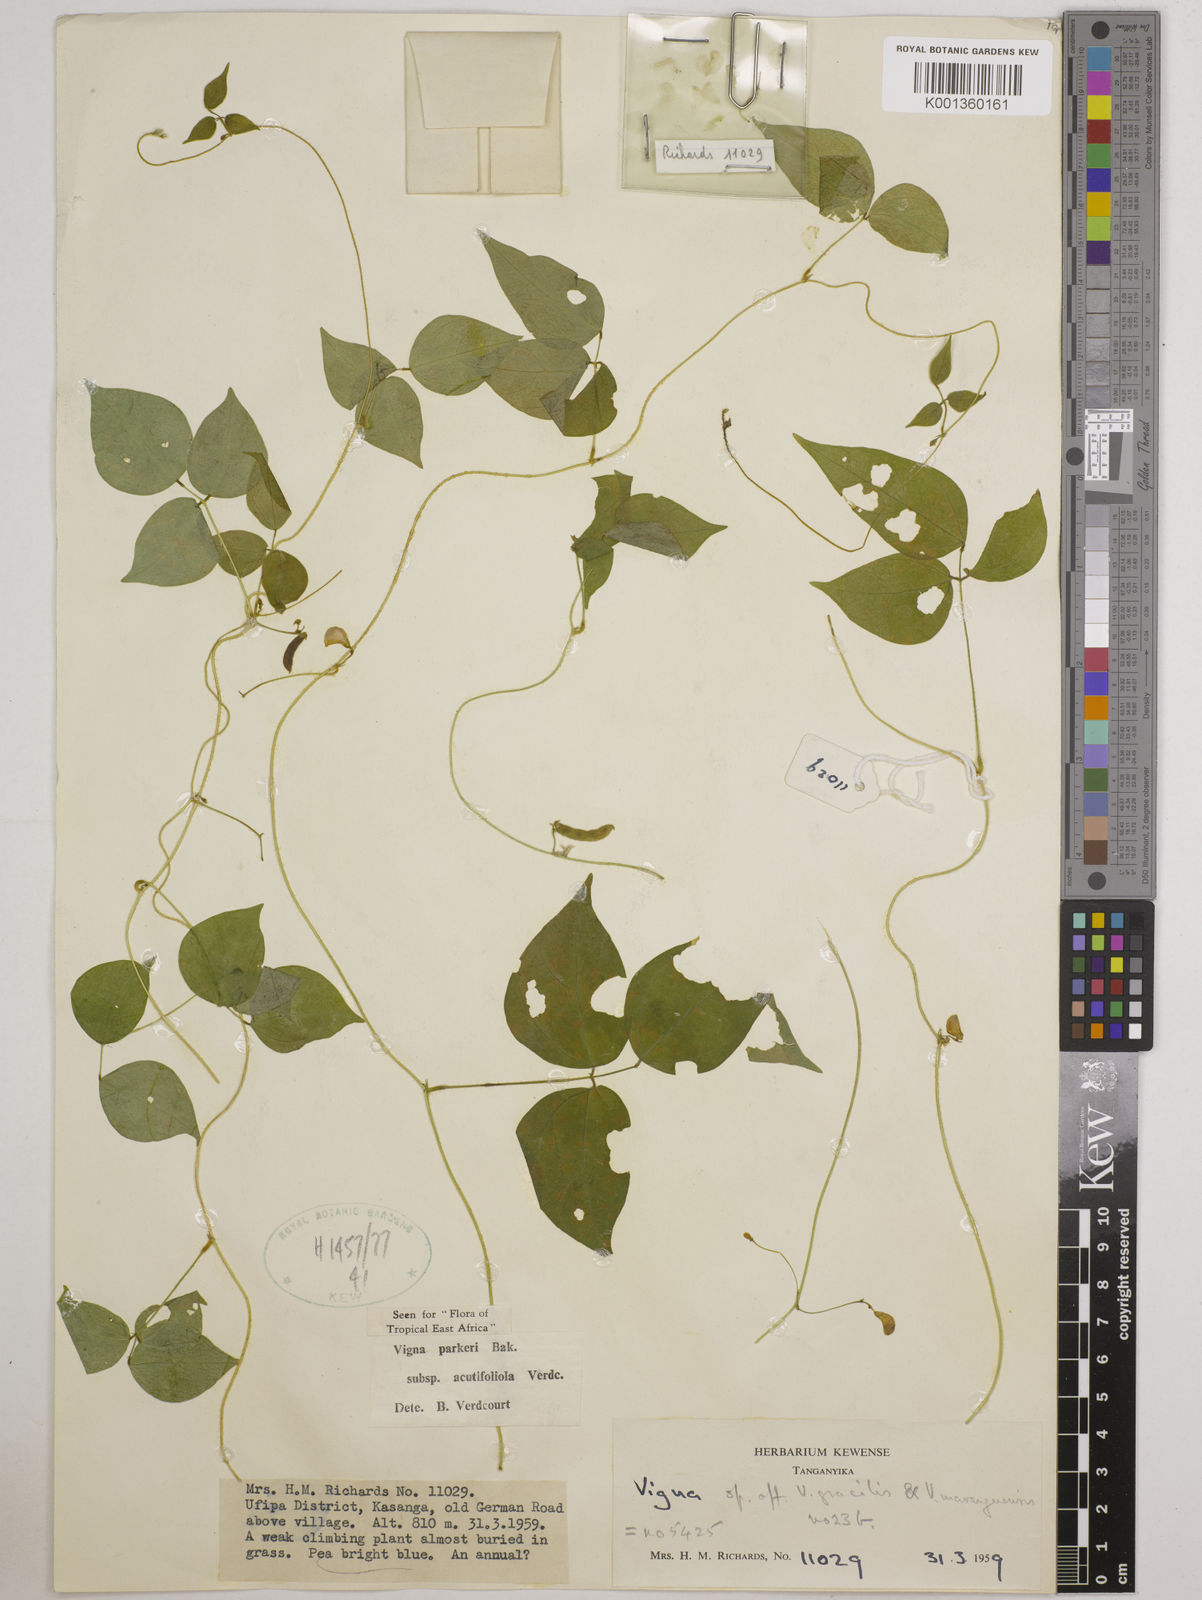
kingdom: Plantae
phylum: Tracheophyta
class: Magnoliopsida
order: Fabales
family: Fabaceae
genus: Vigna
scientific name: Vigna
